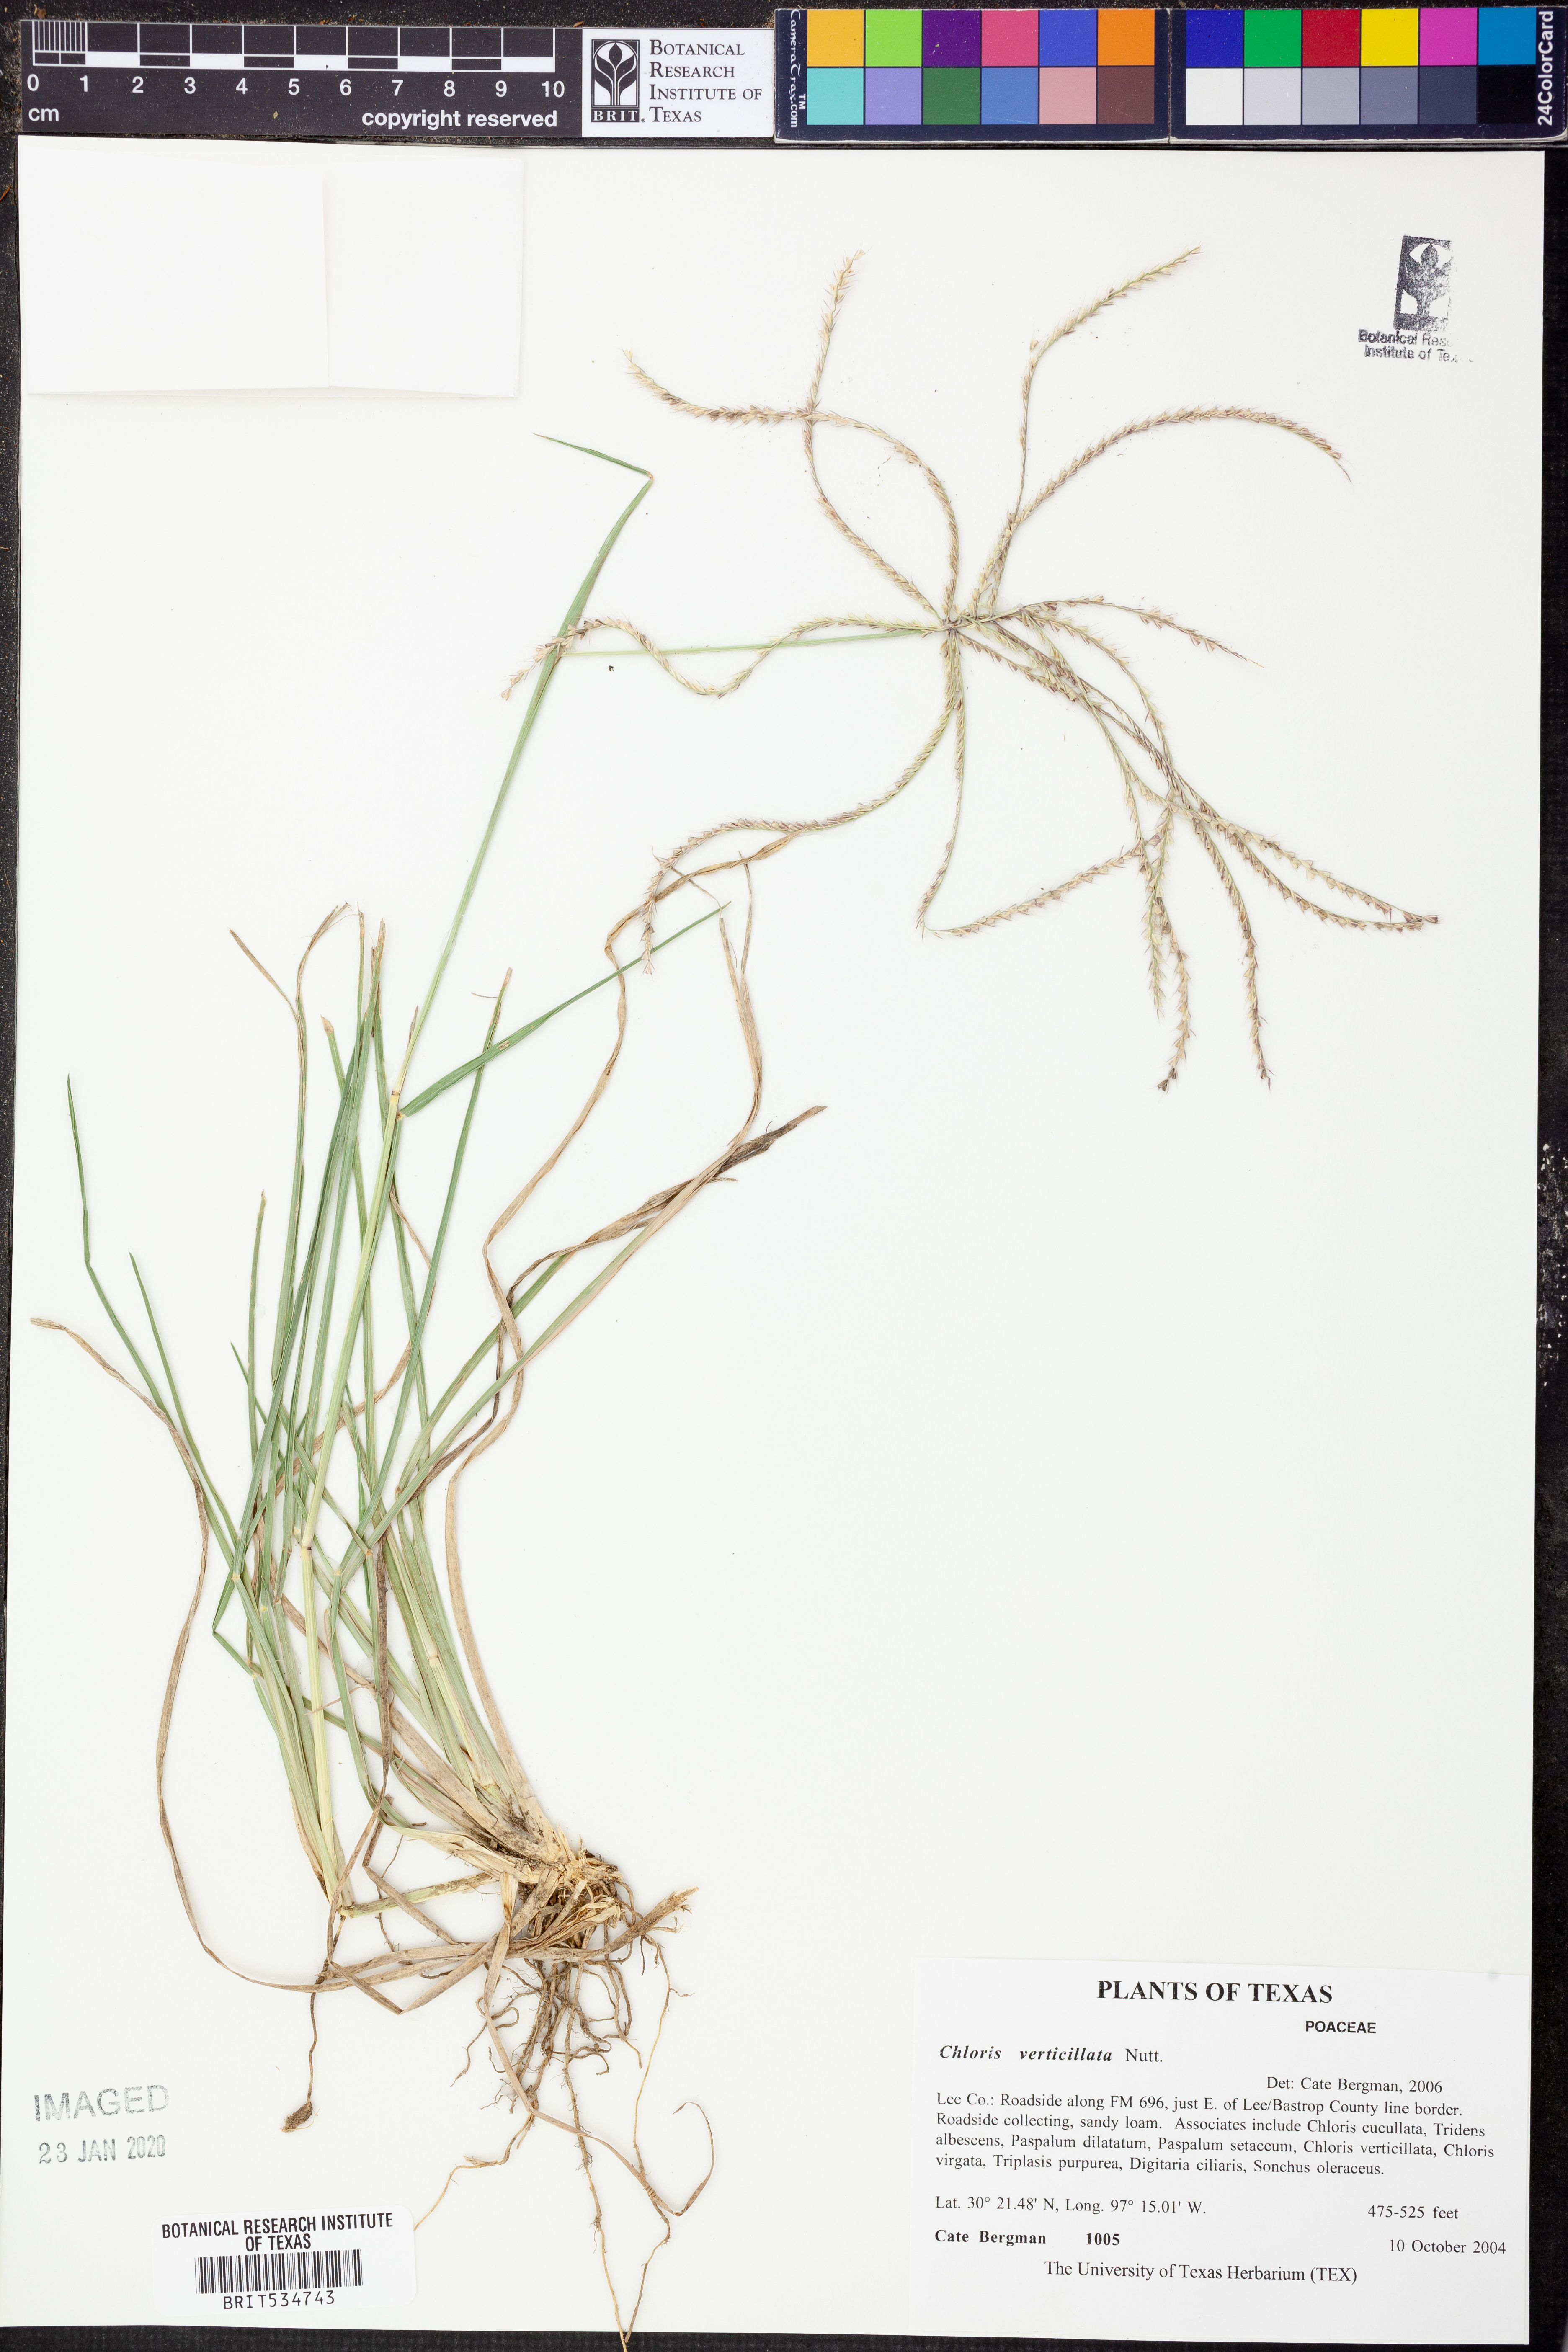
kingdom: Plantae
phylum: Tracheophyta
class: Liliopsida
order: Poales
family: Poaceae
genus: Chloris
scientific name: Chloris verticillata
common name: Tumble windmill grass
